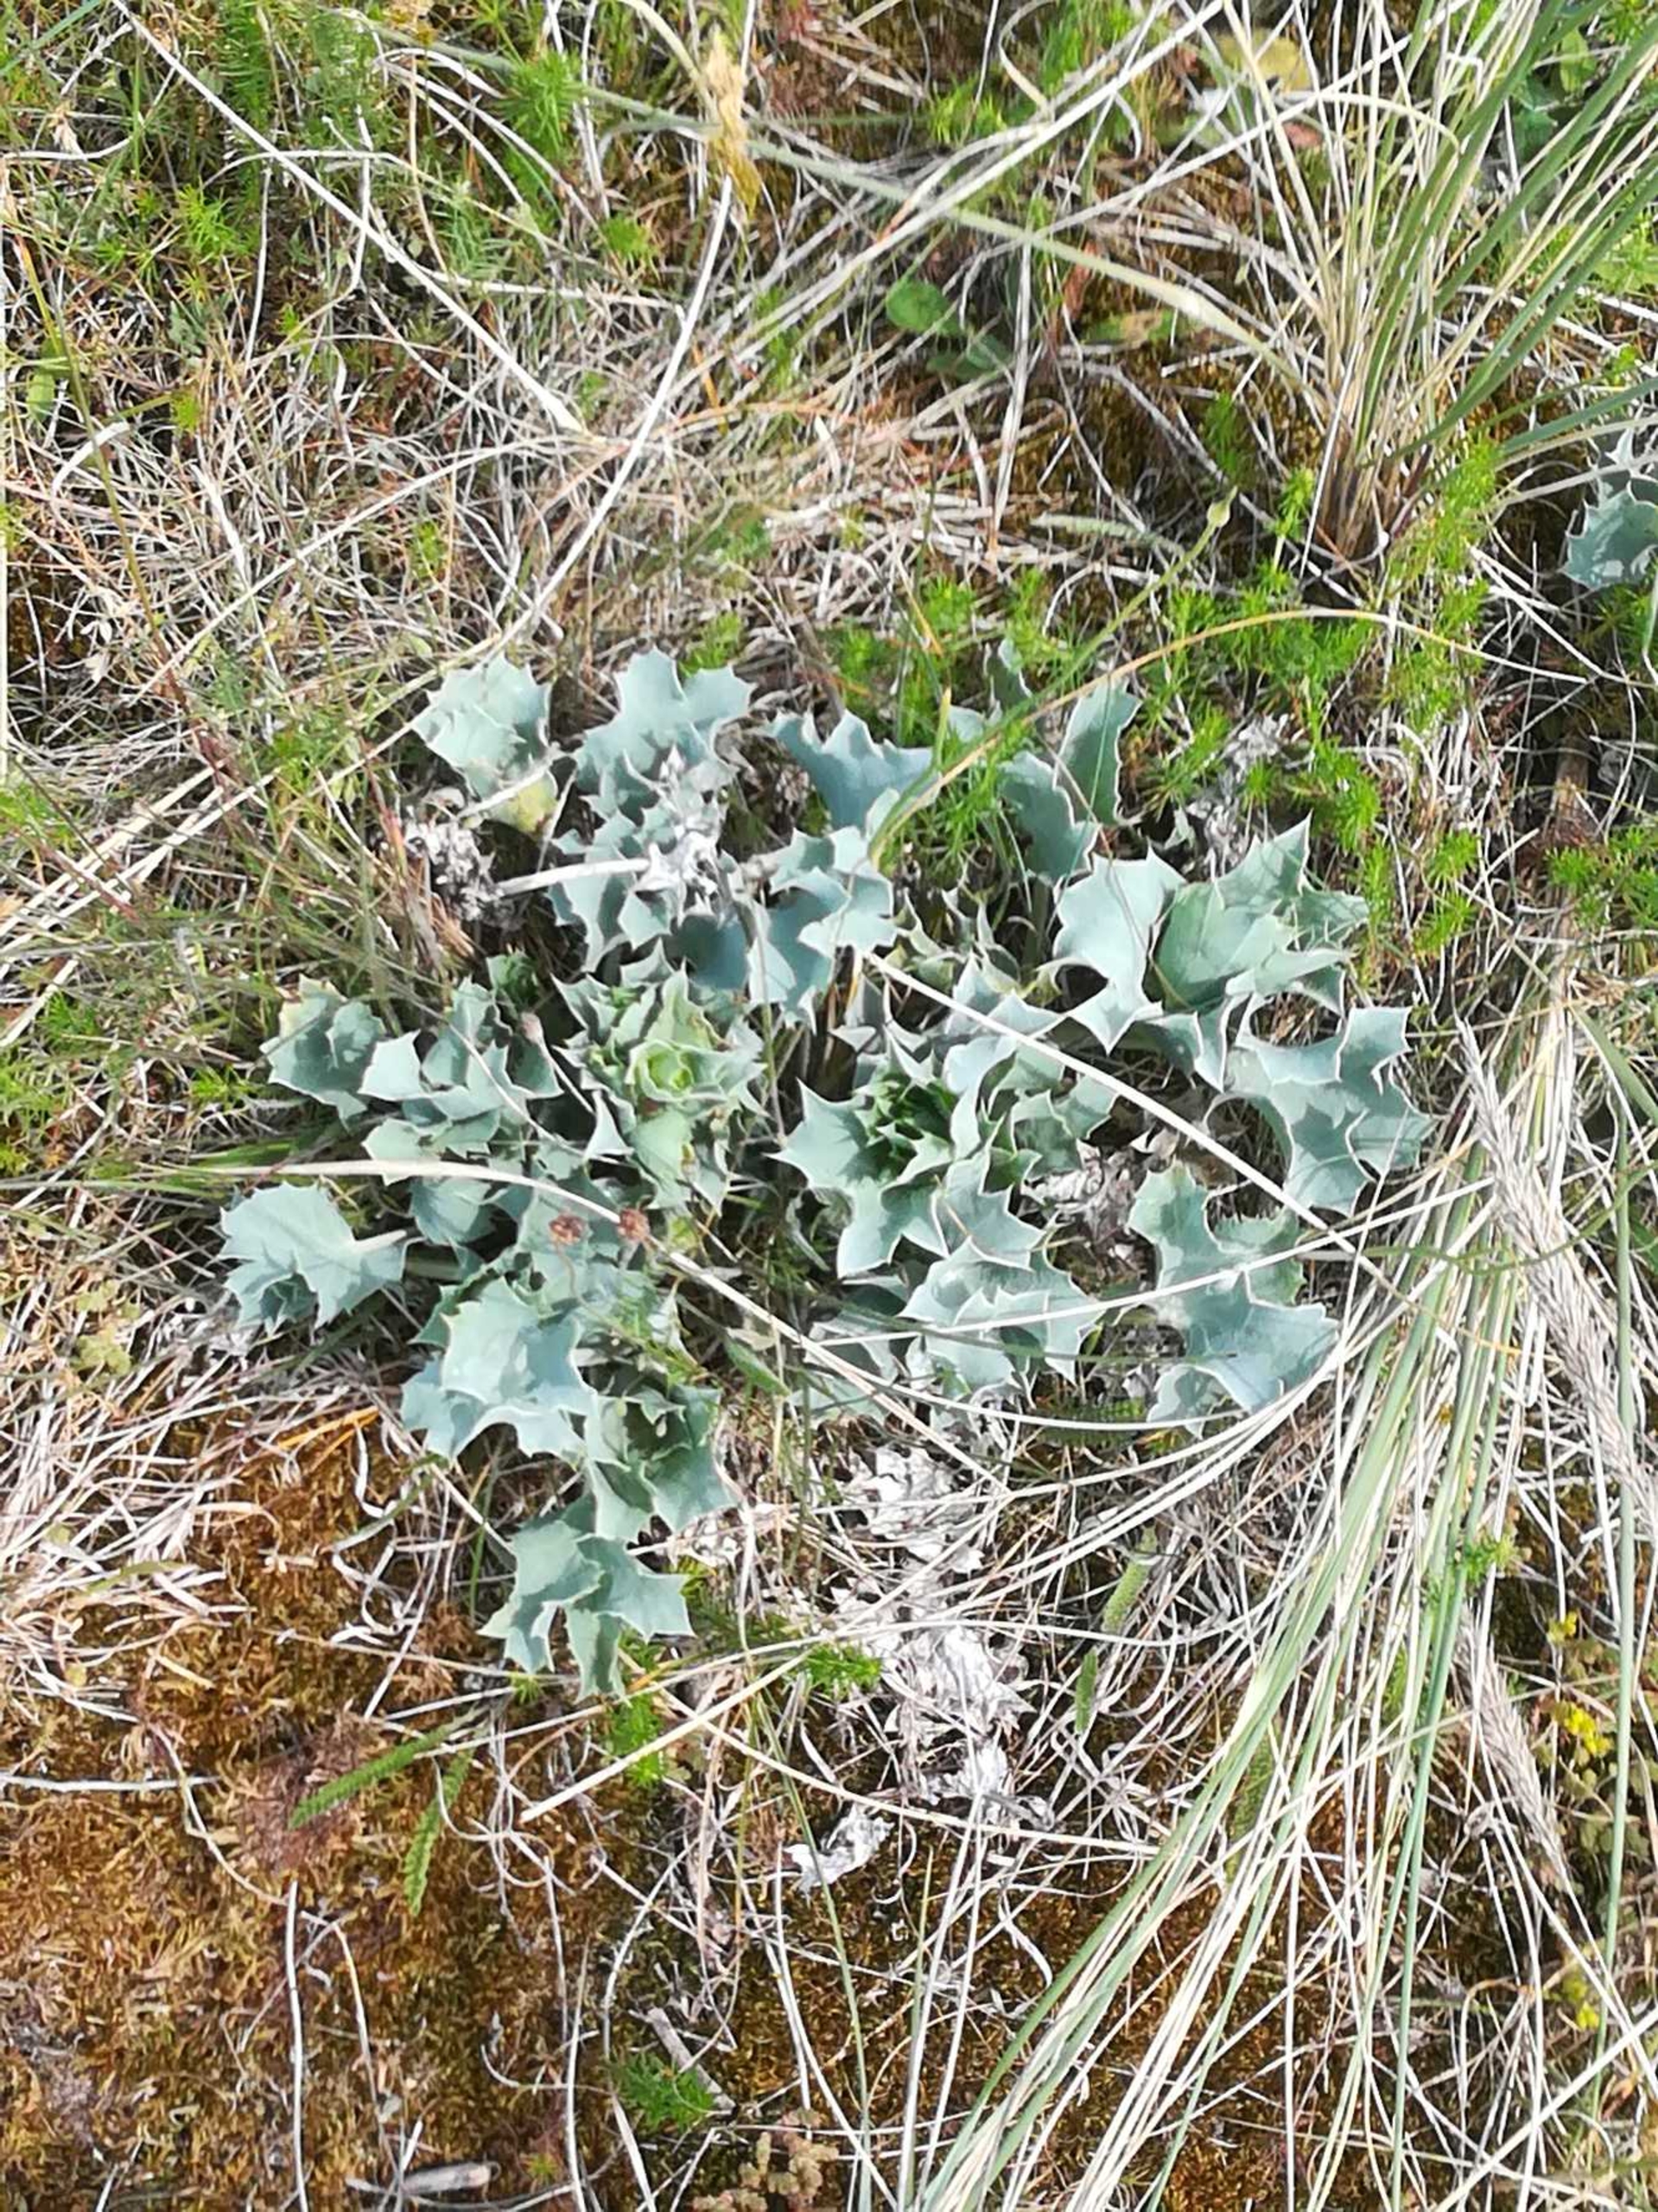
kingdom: Plantae
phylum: Tracheophyta
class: Magnoliopsida
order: Apiales
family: Apiaceae
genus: Eryngium
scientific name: Eryngium maritimum
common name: Strand-mandstro
